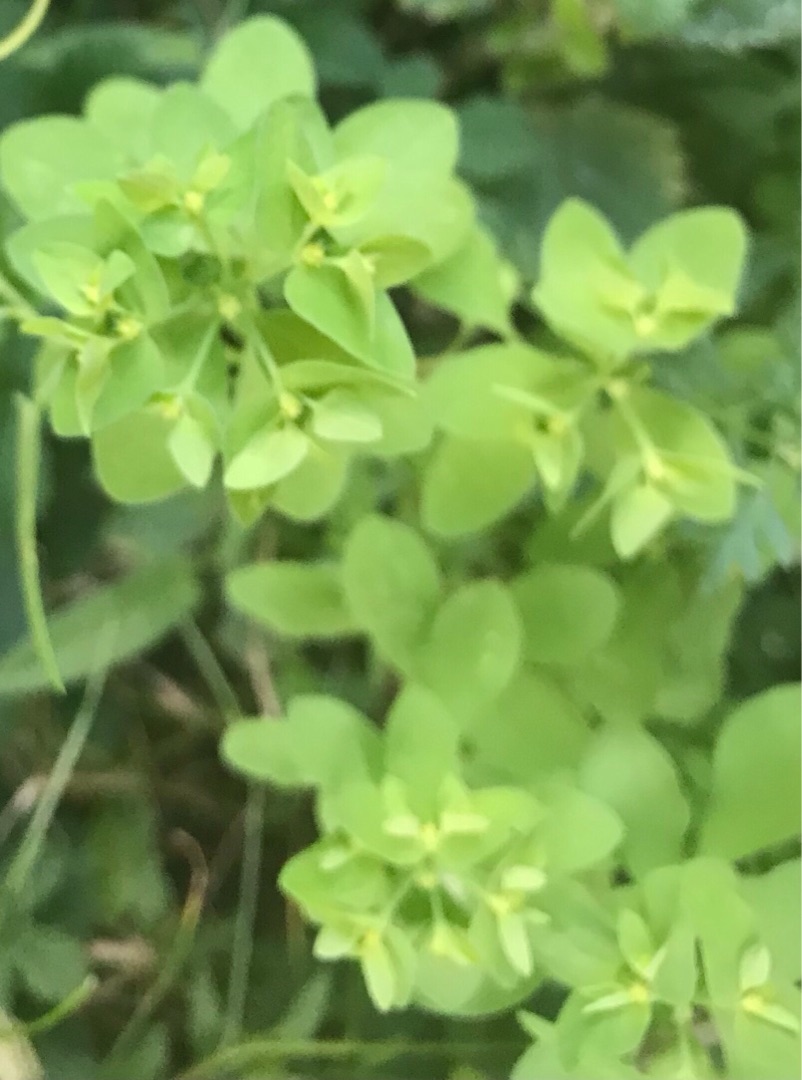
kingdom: Plantae
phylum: Tracheophyta
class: Magnoliopsida
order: Malpighiales
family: Euphorbiaceae
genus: Euphorbia
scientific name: Euphorbia peplus
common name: Gaffel-vortemælk
